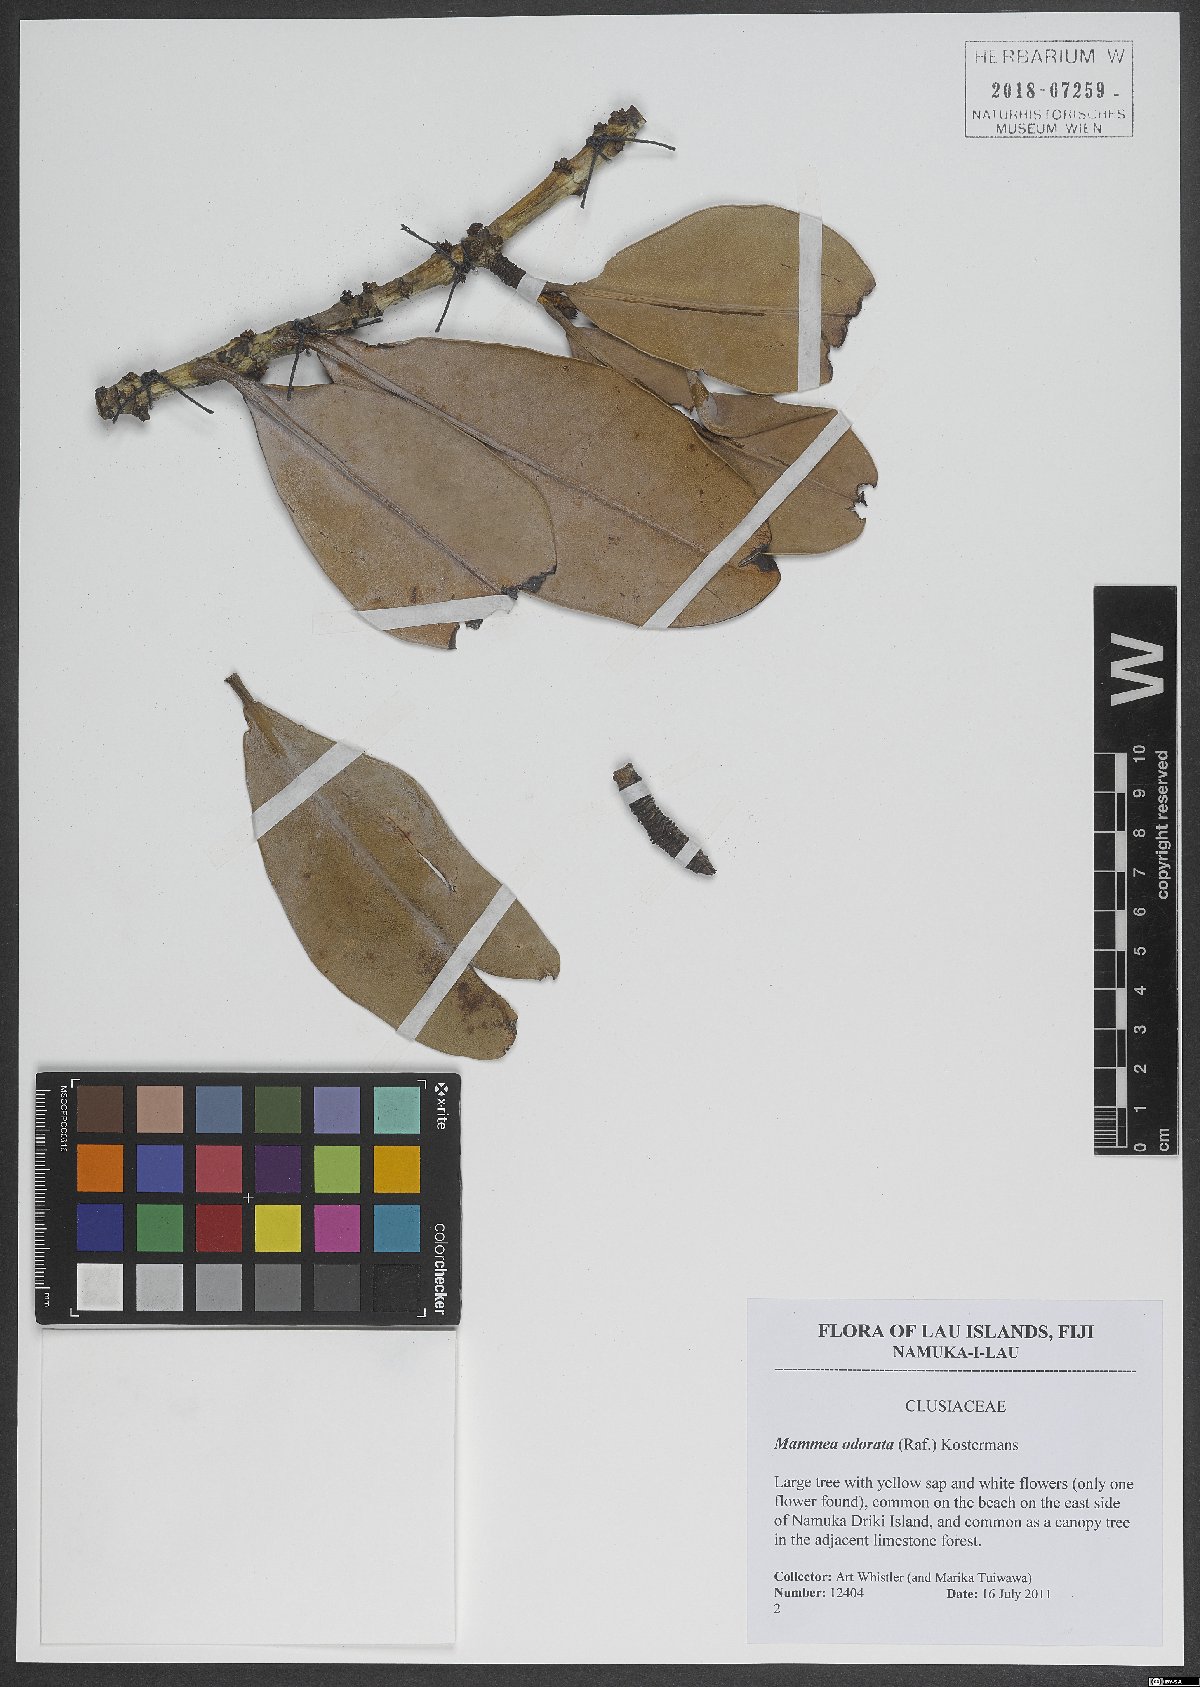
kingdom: Plantae
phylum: Tracheophyta
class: Magnoliopsida
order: Malpighiales
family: Calophyllaceae
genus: Mammea
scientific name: Mammea odorata
